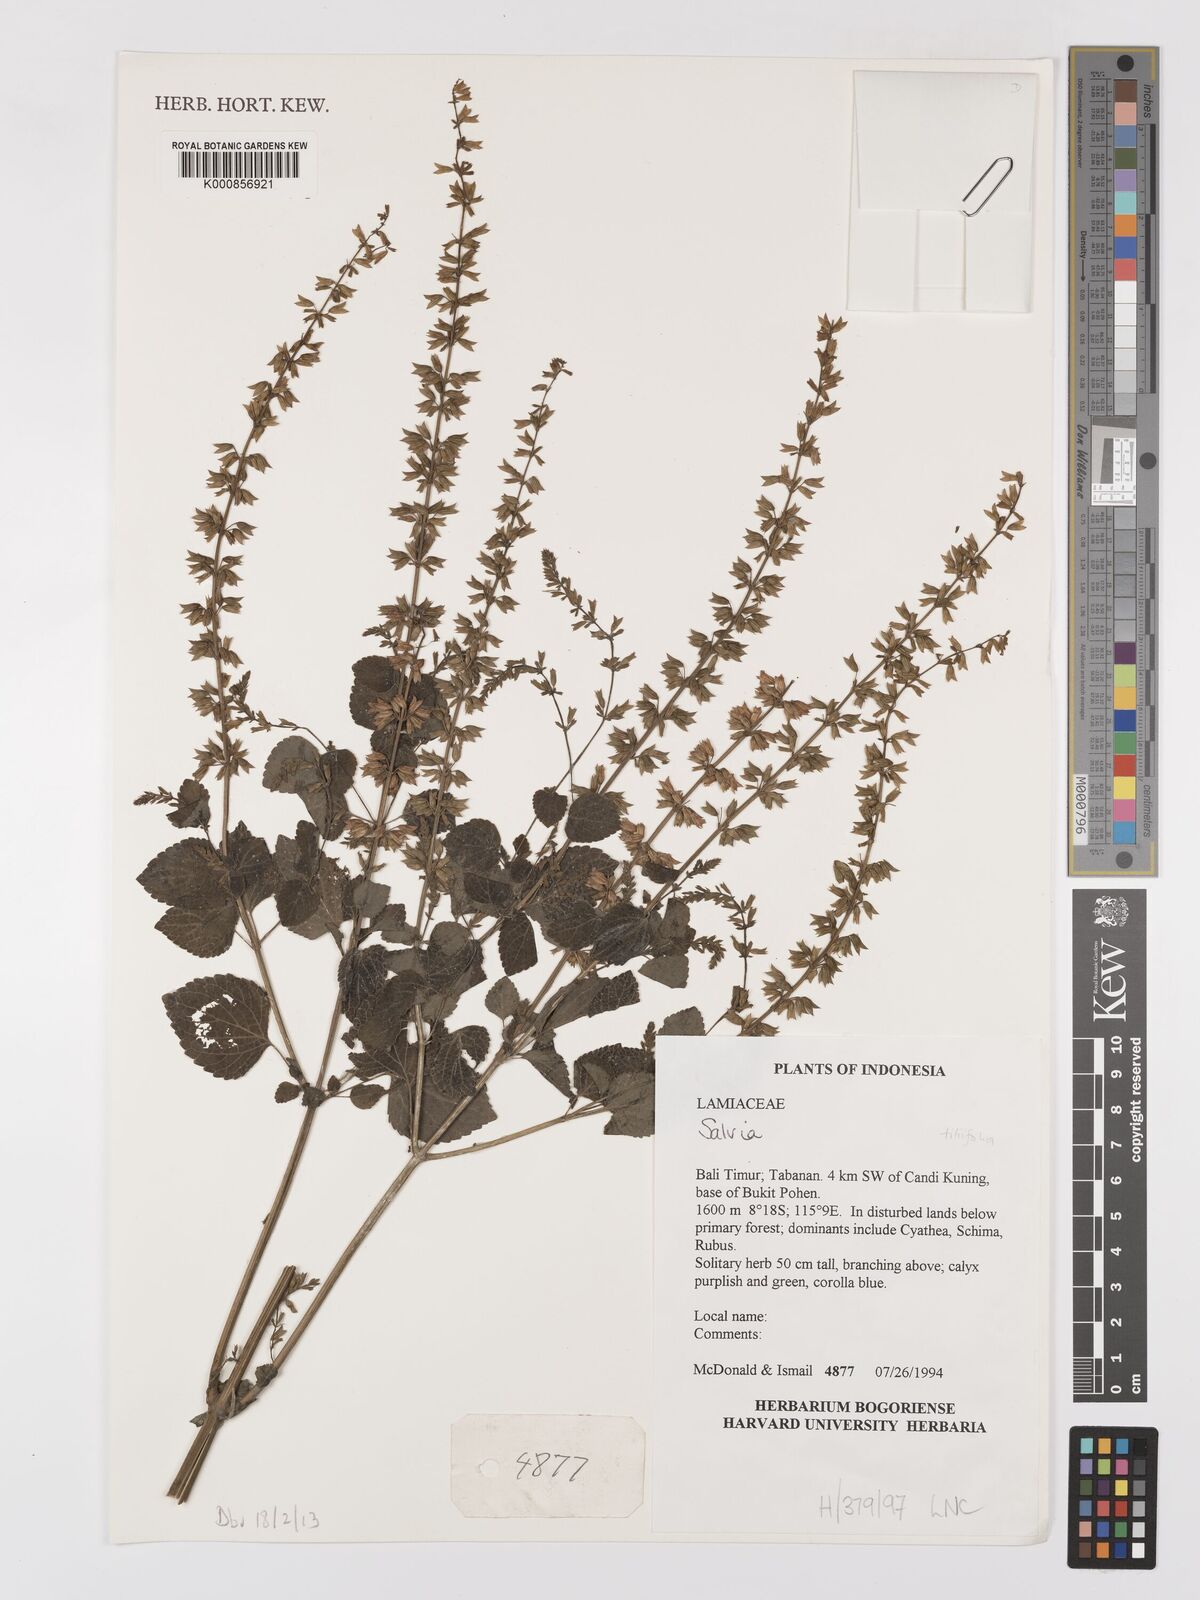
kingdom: Plantae
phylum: Tracheophyta
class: Magnoliopsida
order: Lamiales
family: Lamiaceae
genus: Salvia
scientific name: Salvia
